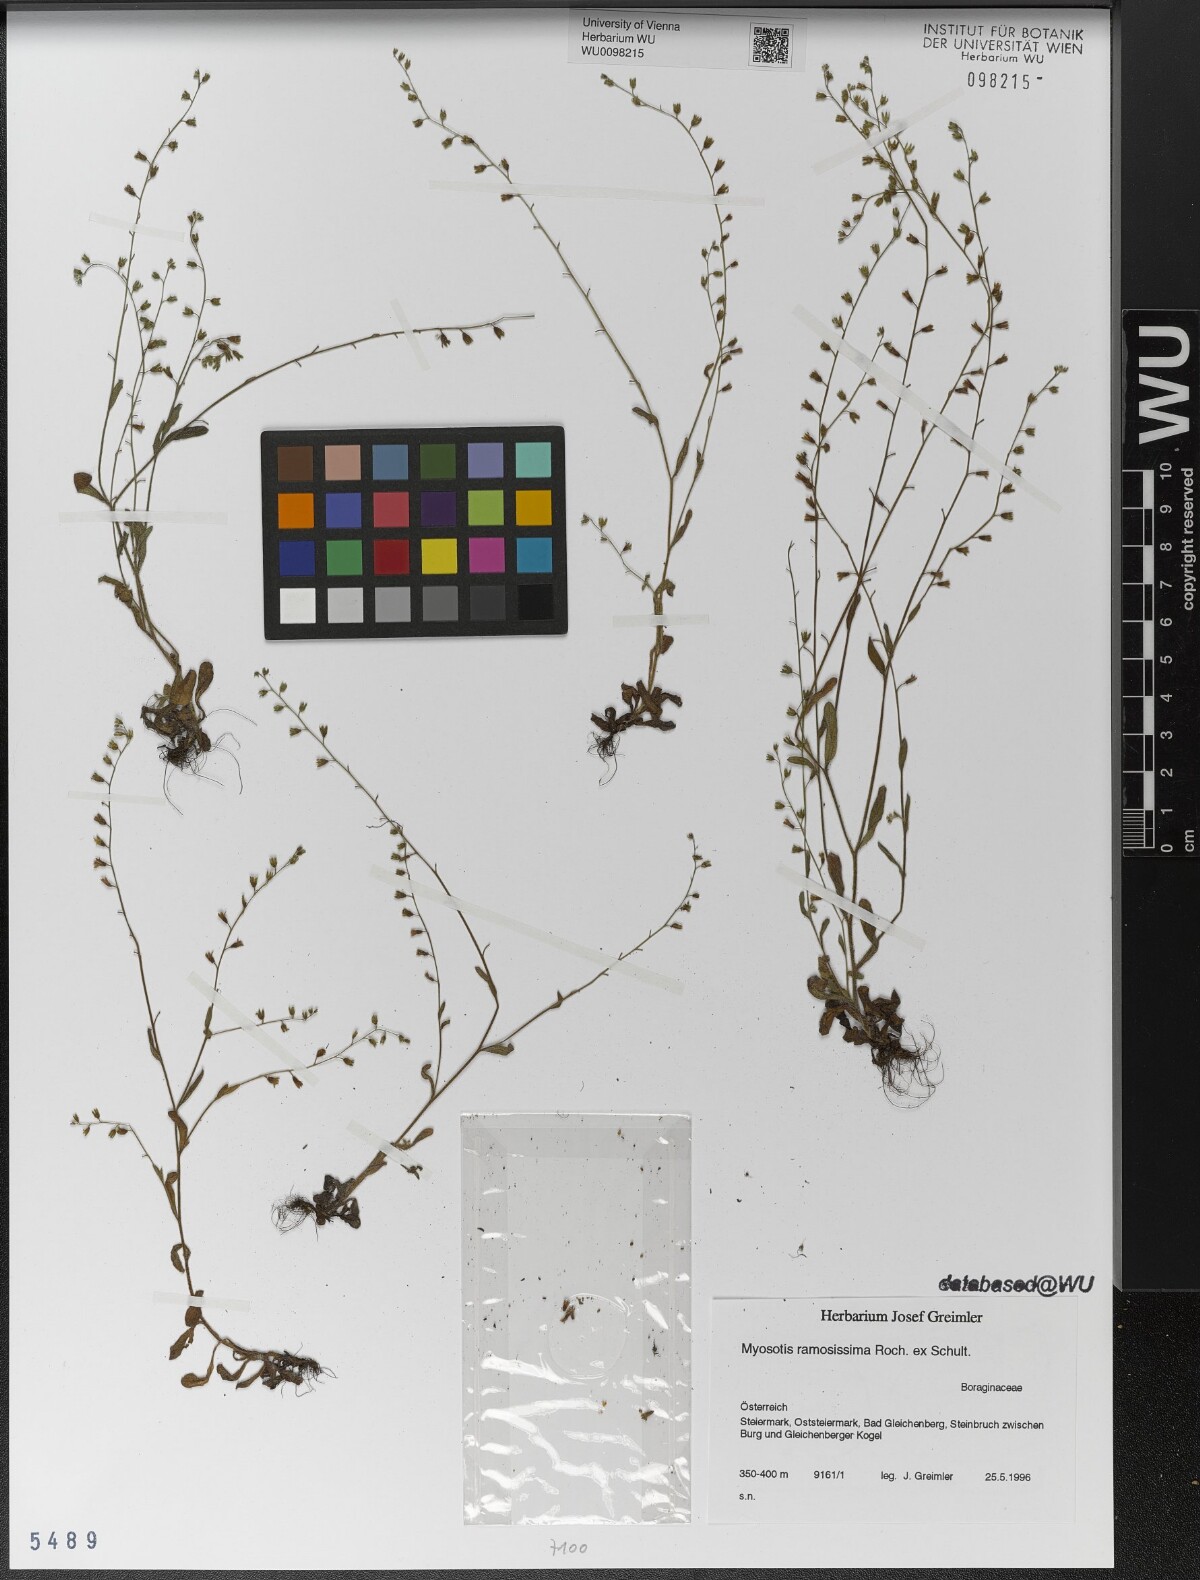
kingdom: Plantae
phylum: Tracheophyta
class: Magnoliopsida
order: Boraginales
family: Boraginaceae
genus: Myosotis
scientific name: Myosotis ramosissima
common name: Early forget-me-not
